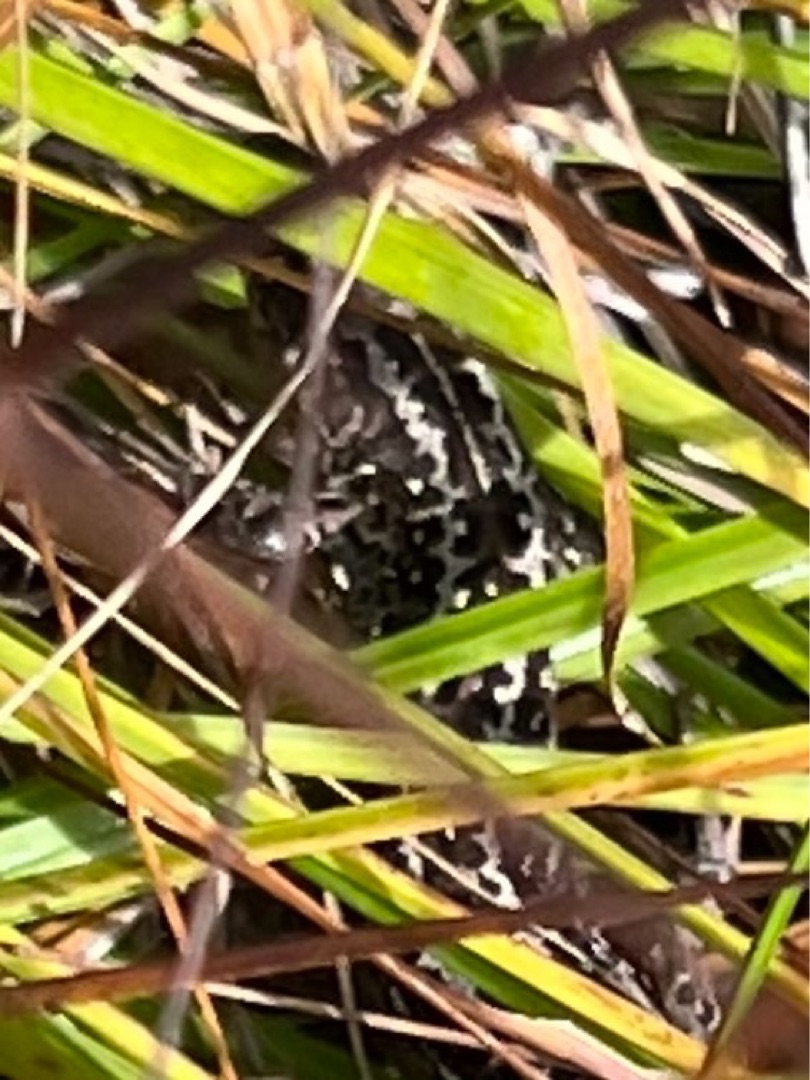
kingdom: Animalia
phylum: Chordata
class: Squamata
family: Lacertidae
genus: Lacerta
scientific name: Lacerta agilis
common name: Markfirben
